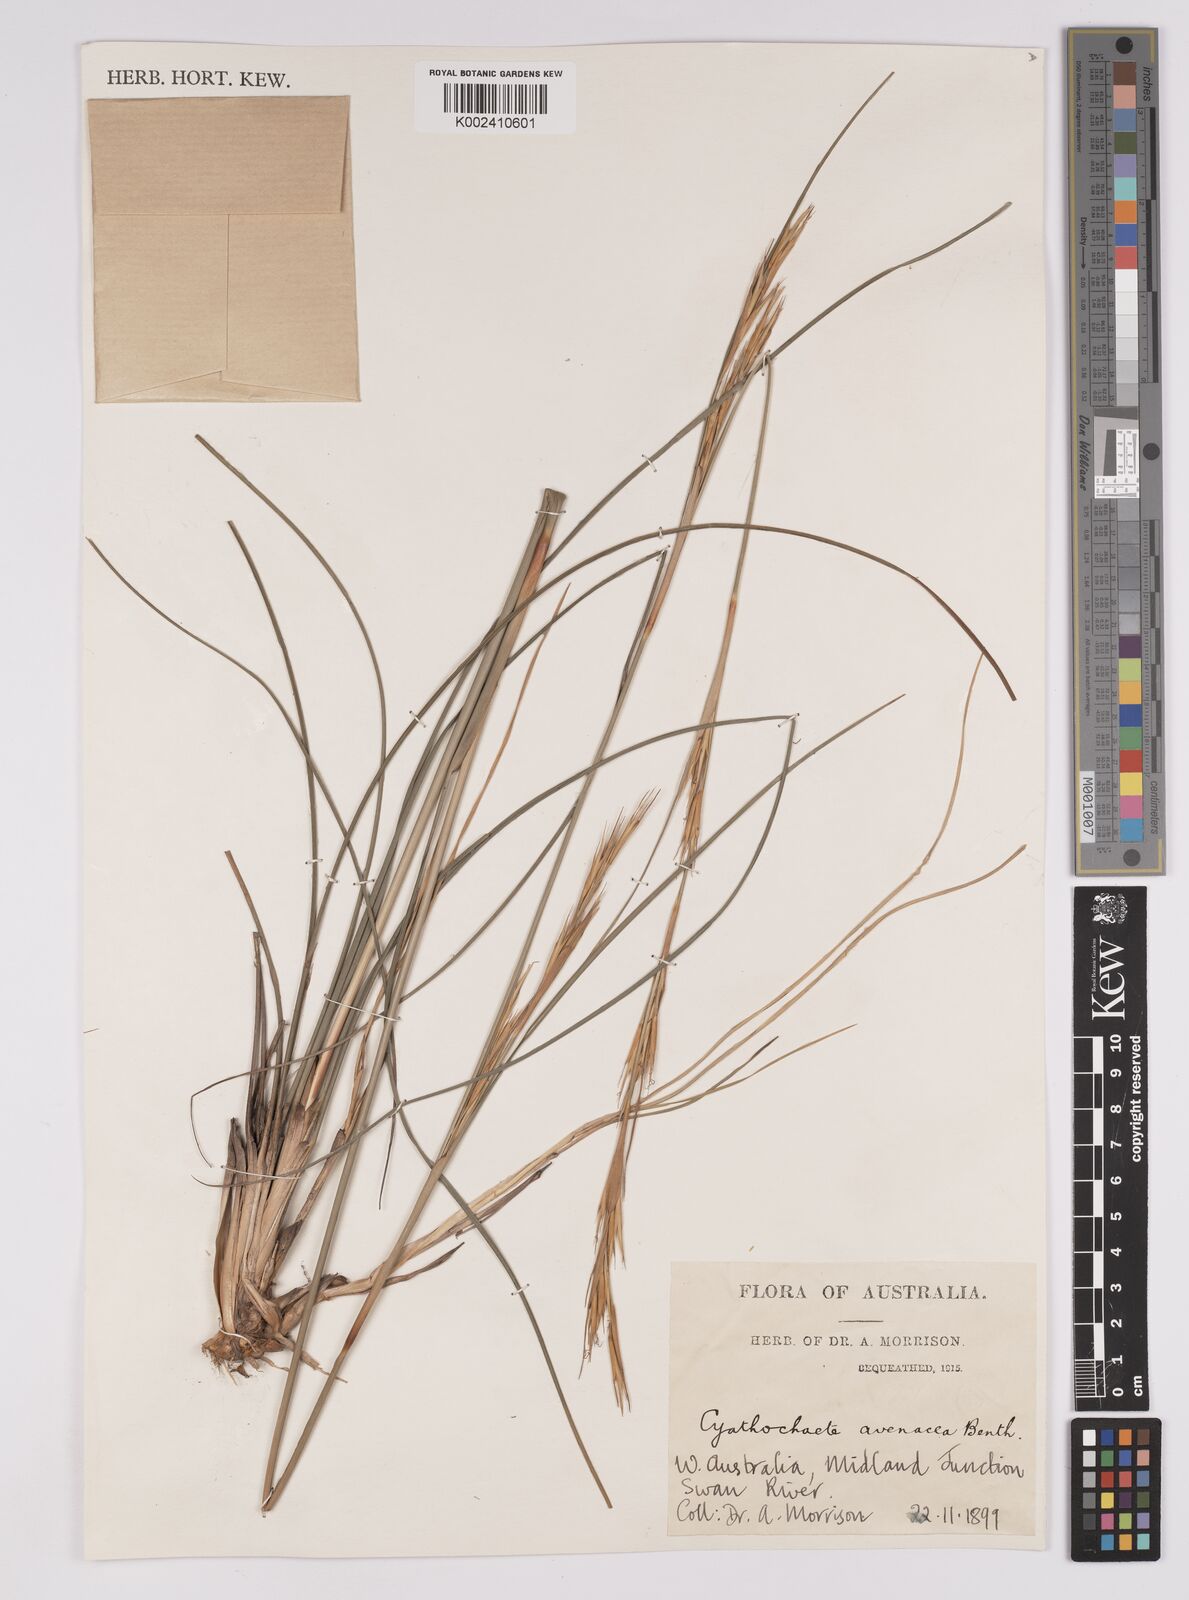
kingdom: Plantae
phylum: Tracheophyta
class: Liliopsida
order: Poales
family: Cyperaceae
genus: Cyathochaeta
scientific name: Cyathochaeta avenacea
